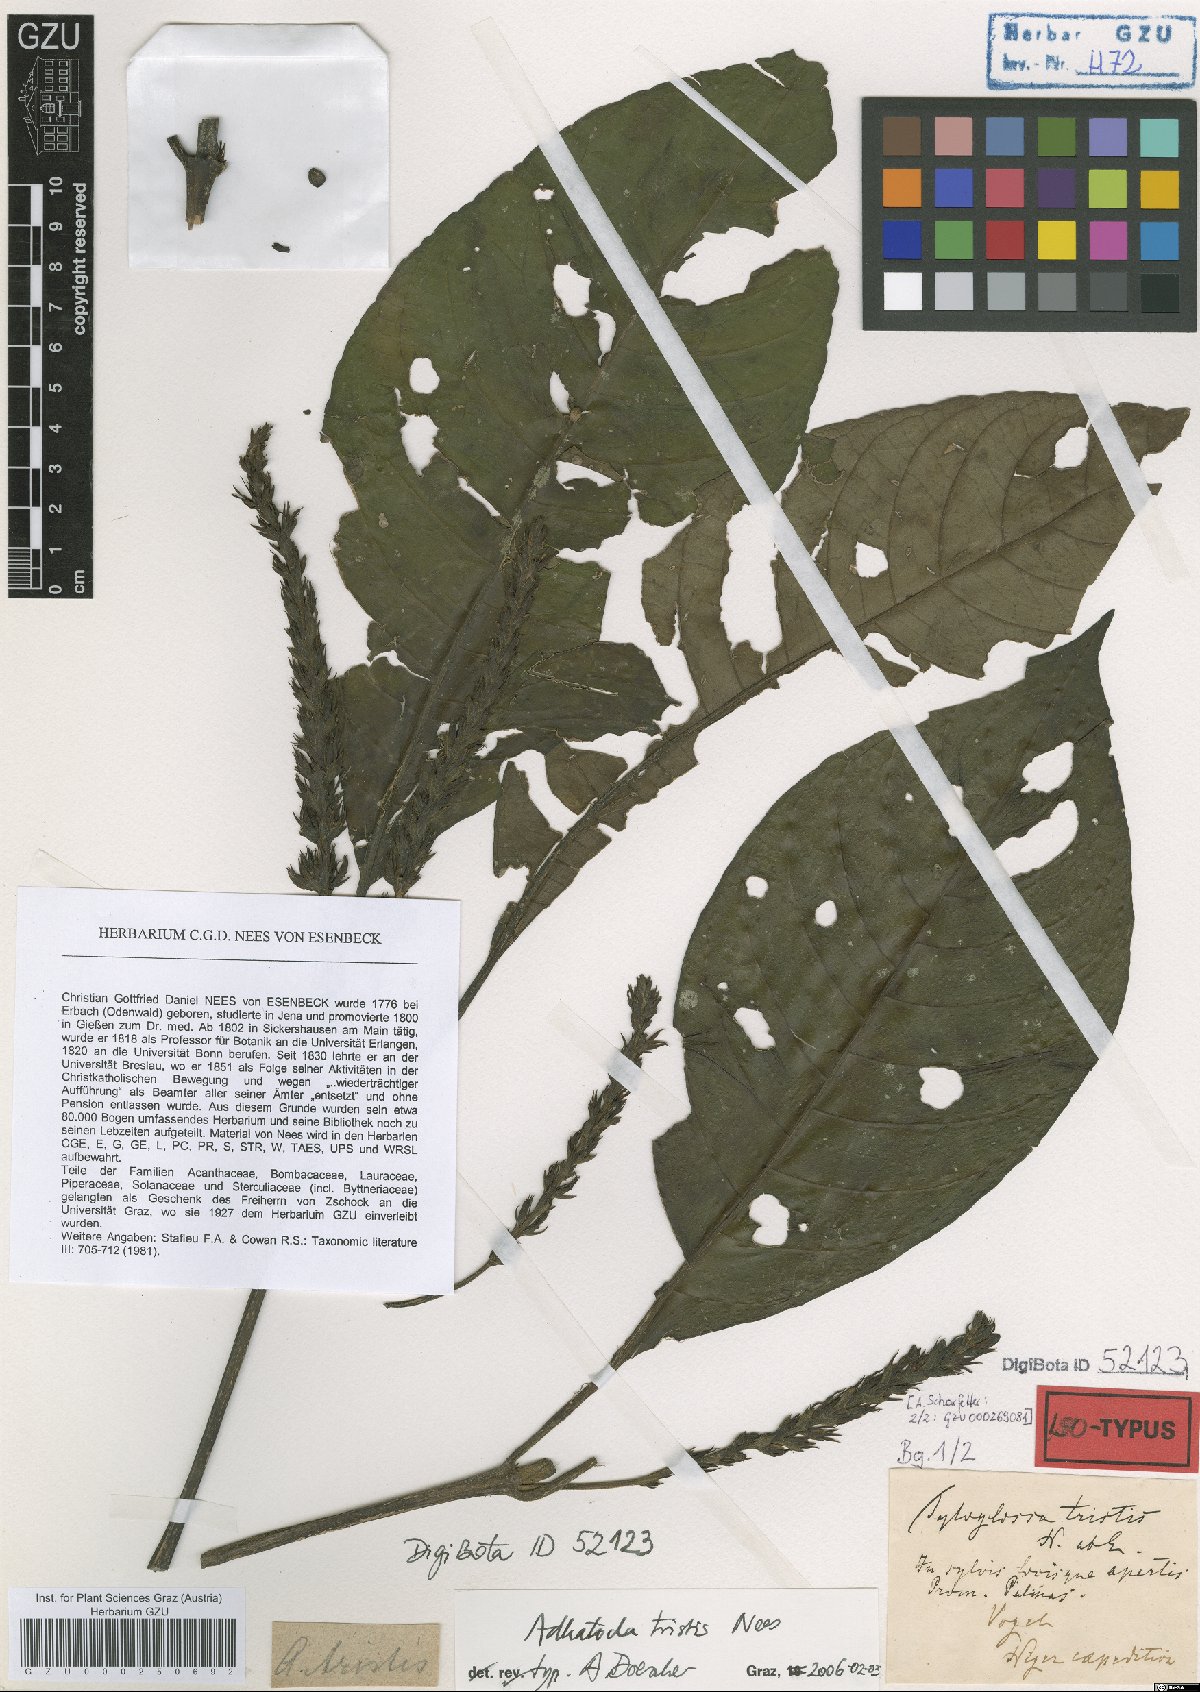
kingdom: Plantae
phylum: Tracheophyta
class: Magnoliopsida
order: Lamiales
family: Acanthaceae
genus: Justicia
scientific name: Justicia tristis
